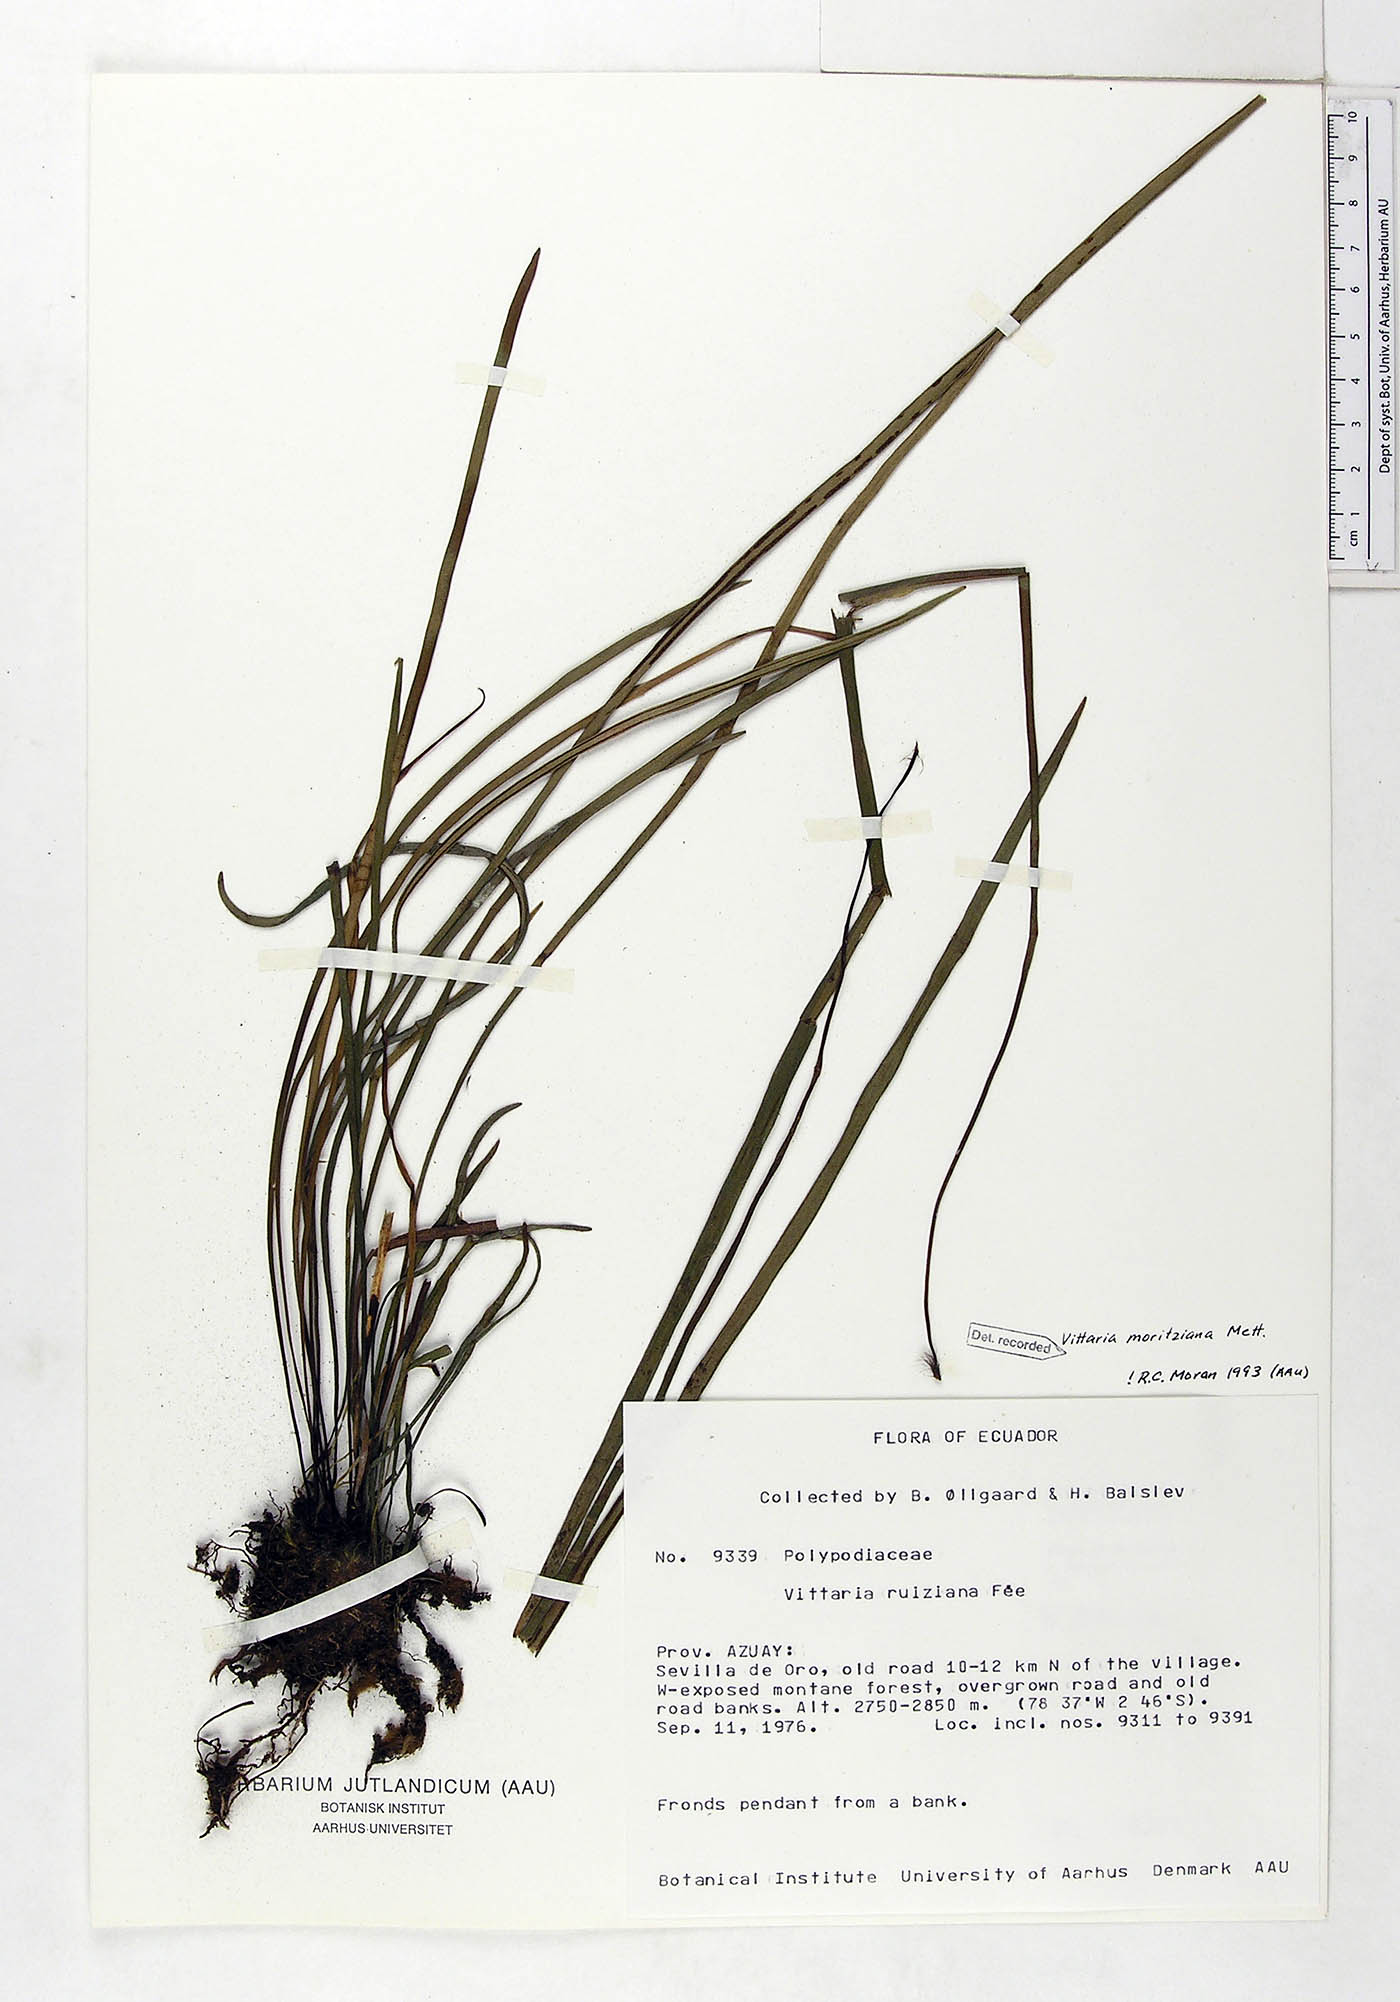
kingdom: Plantae
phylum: Tracheophyta
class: Polypodiopsida
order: Polypodiales
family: Pteridaceae
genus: Radiovittaria
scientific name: Radiovittaria moritziana
